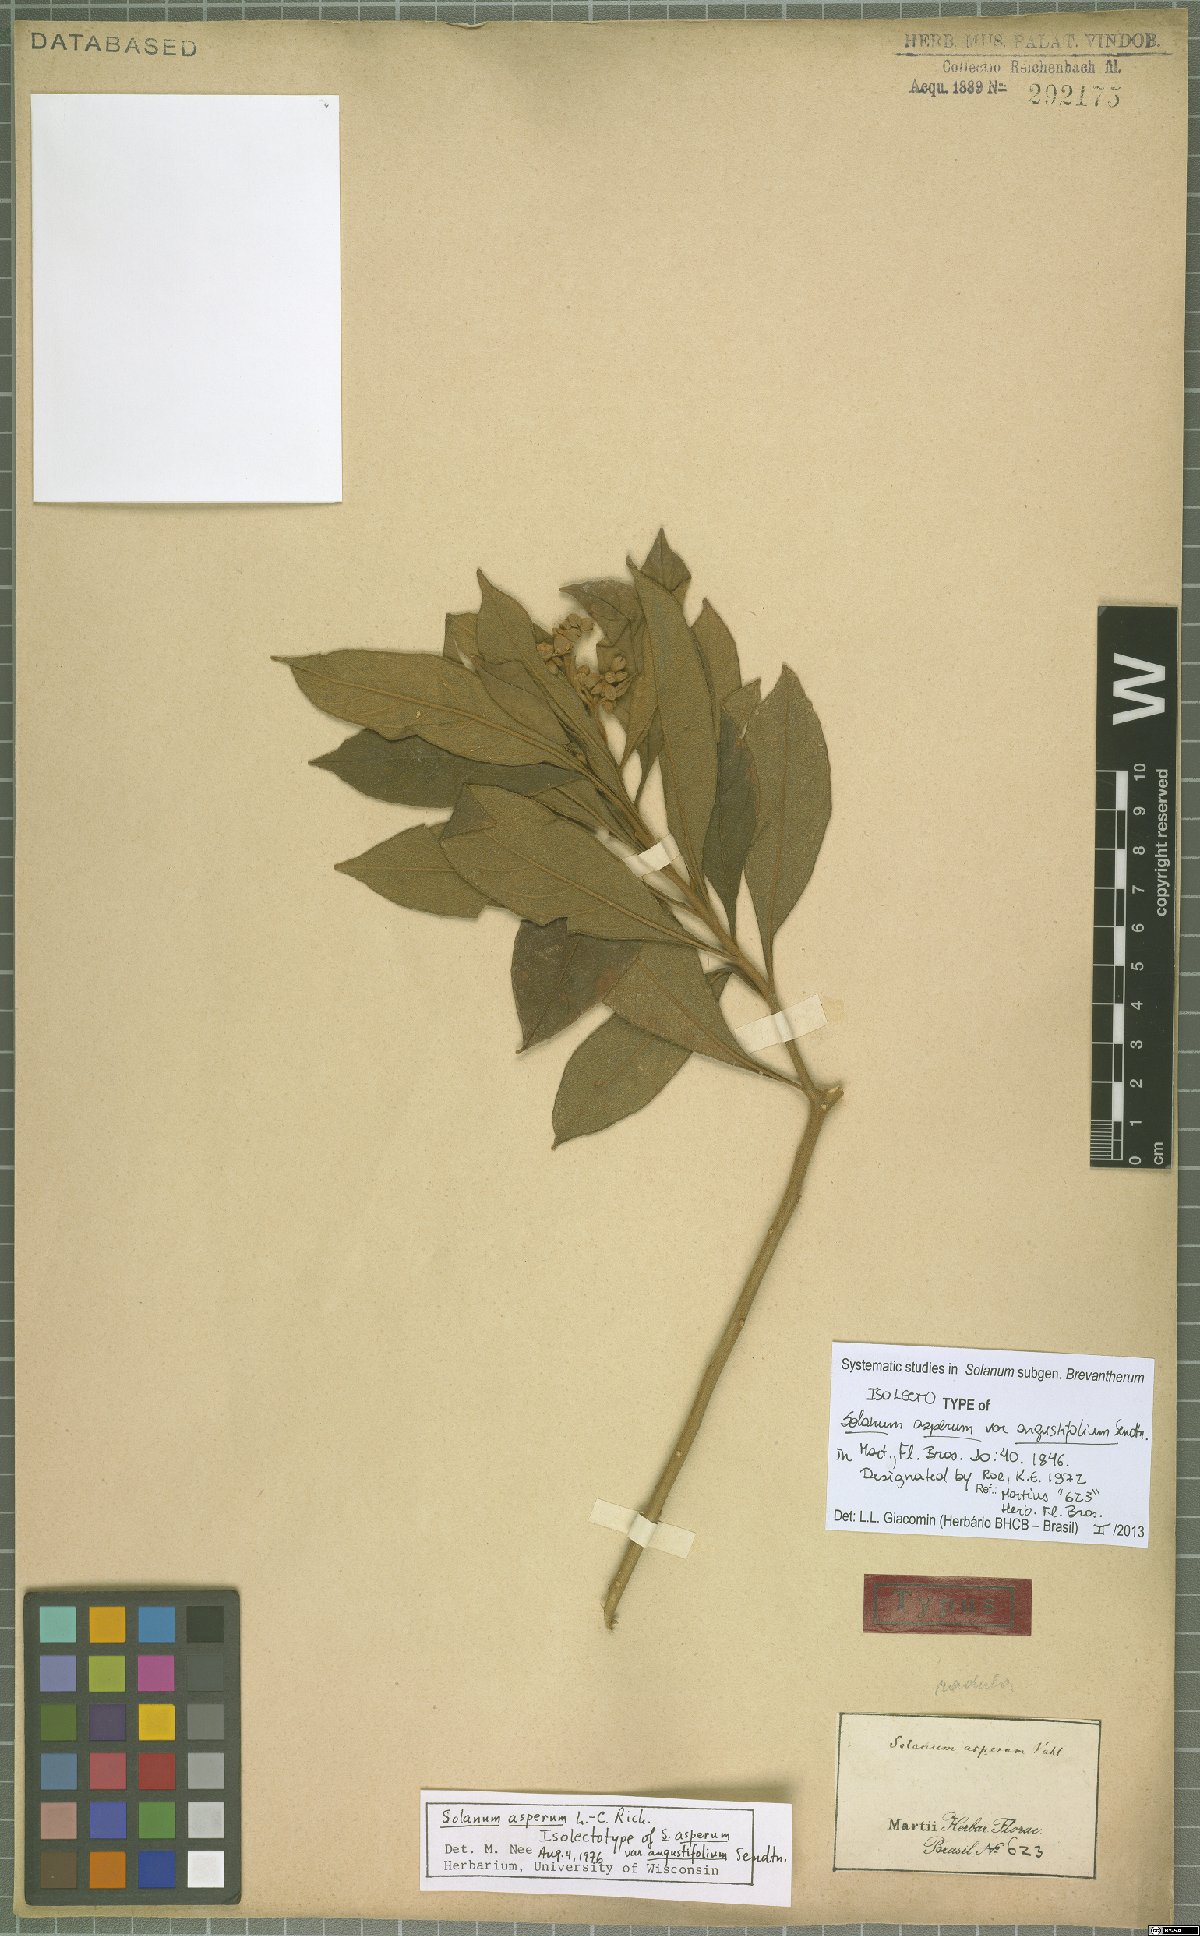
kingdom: Plantae
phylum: Tracheophyta
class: Magnoliopsida
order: Solanales
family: Solanaceae
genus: Solanum
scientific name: Solanum asperum
